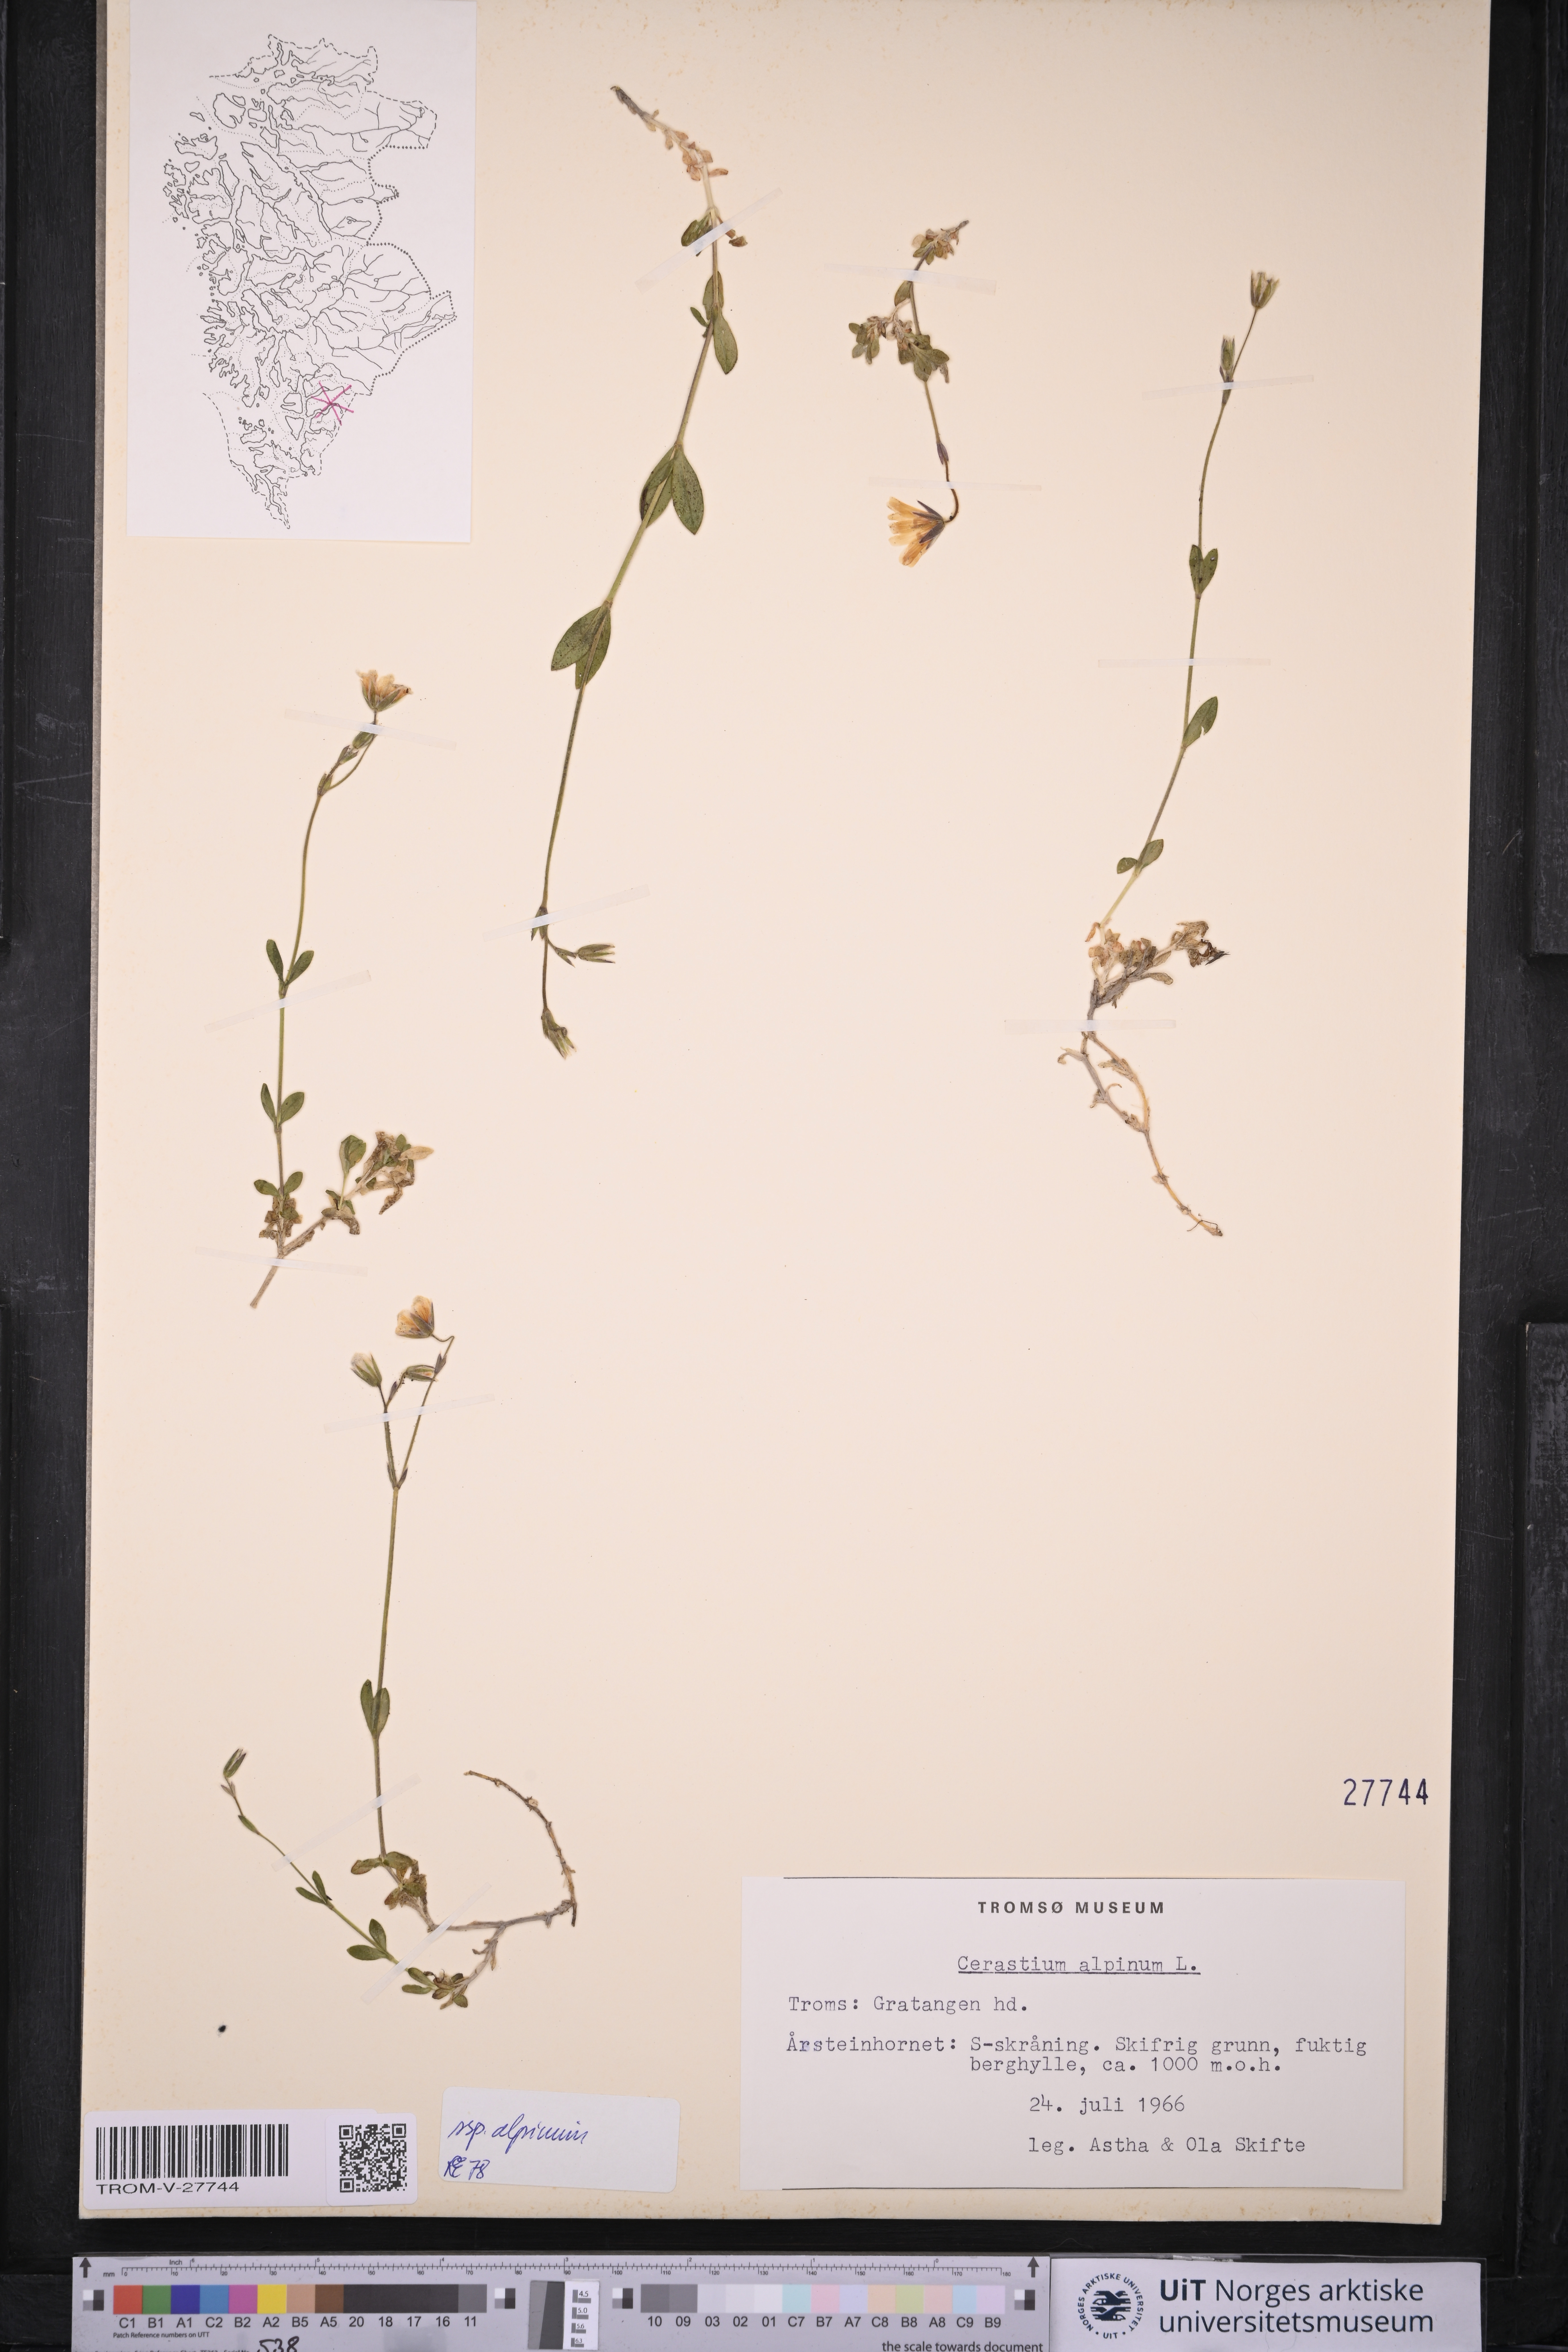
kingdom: Plantae
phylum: Tracheophyta
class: Magnoliopsida
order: Caryophyllales
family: Caryophyllaceae
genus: Cerastium
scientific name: Cerastium alpinum
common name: Alpine mouse-ear
